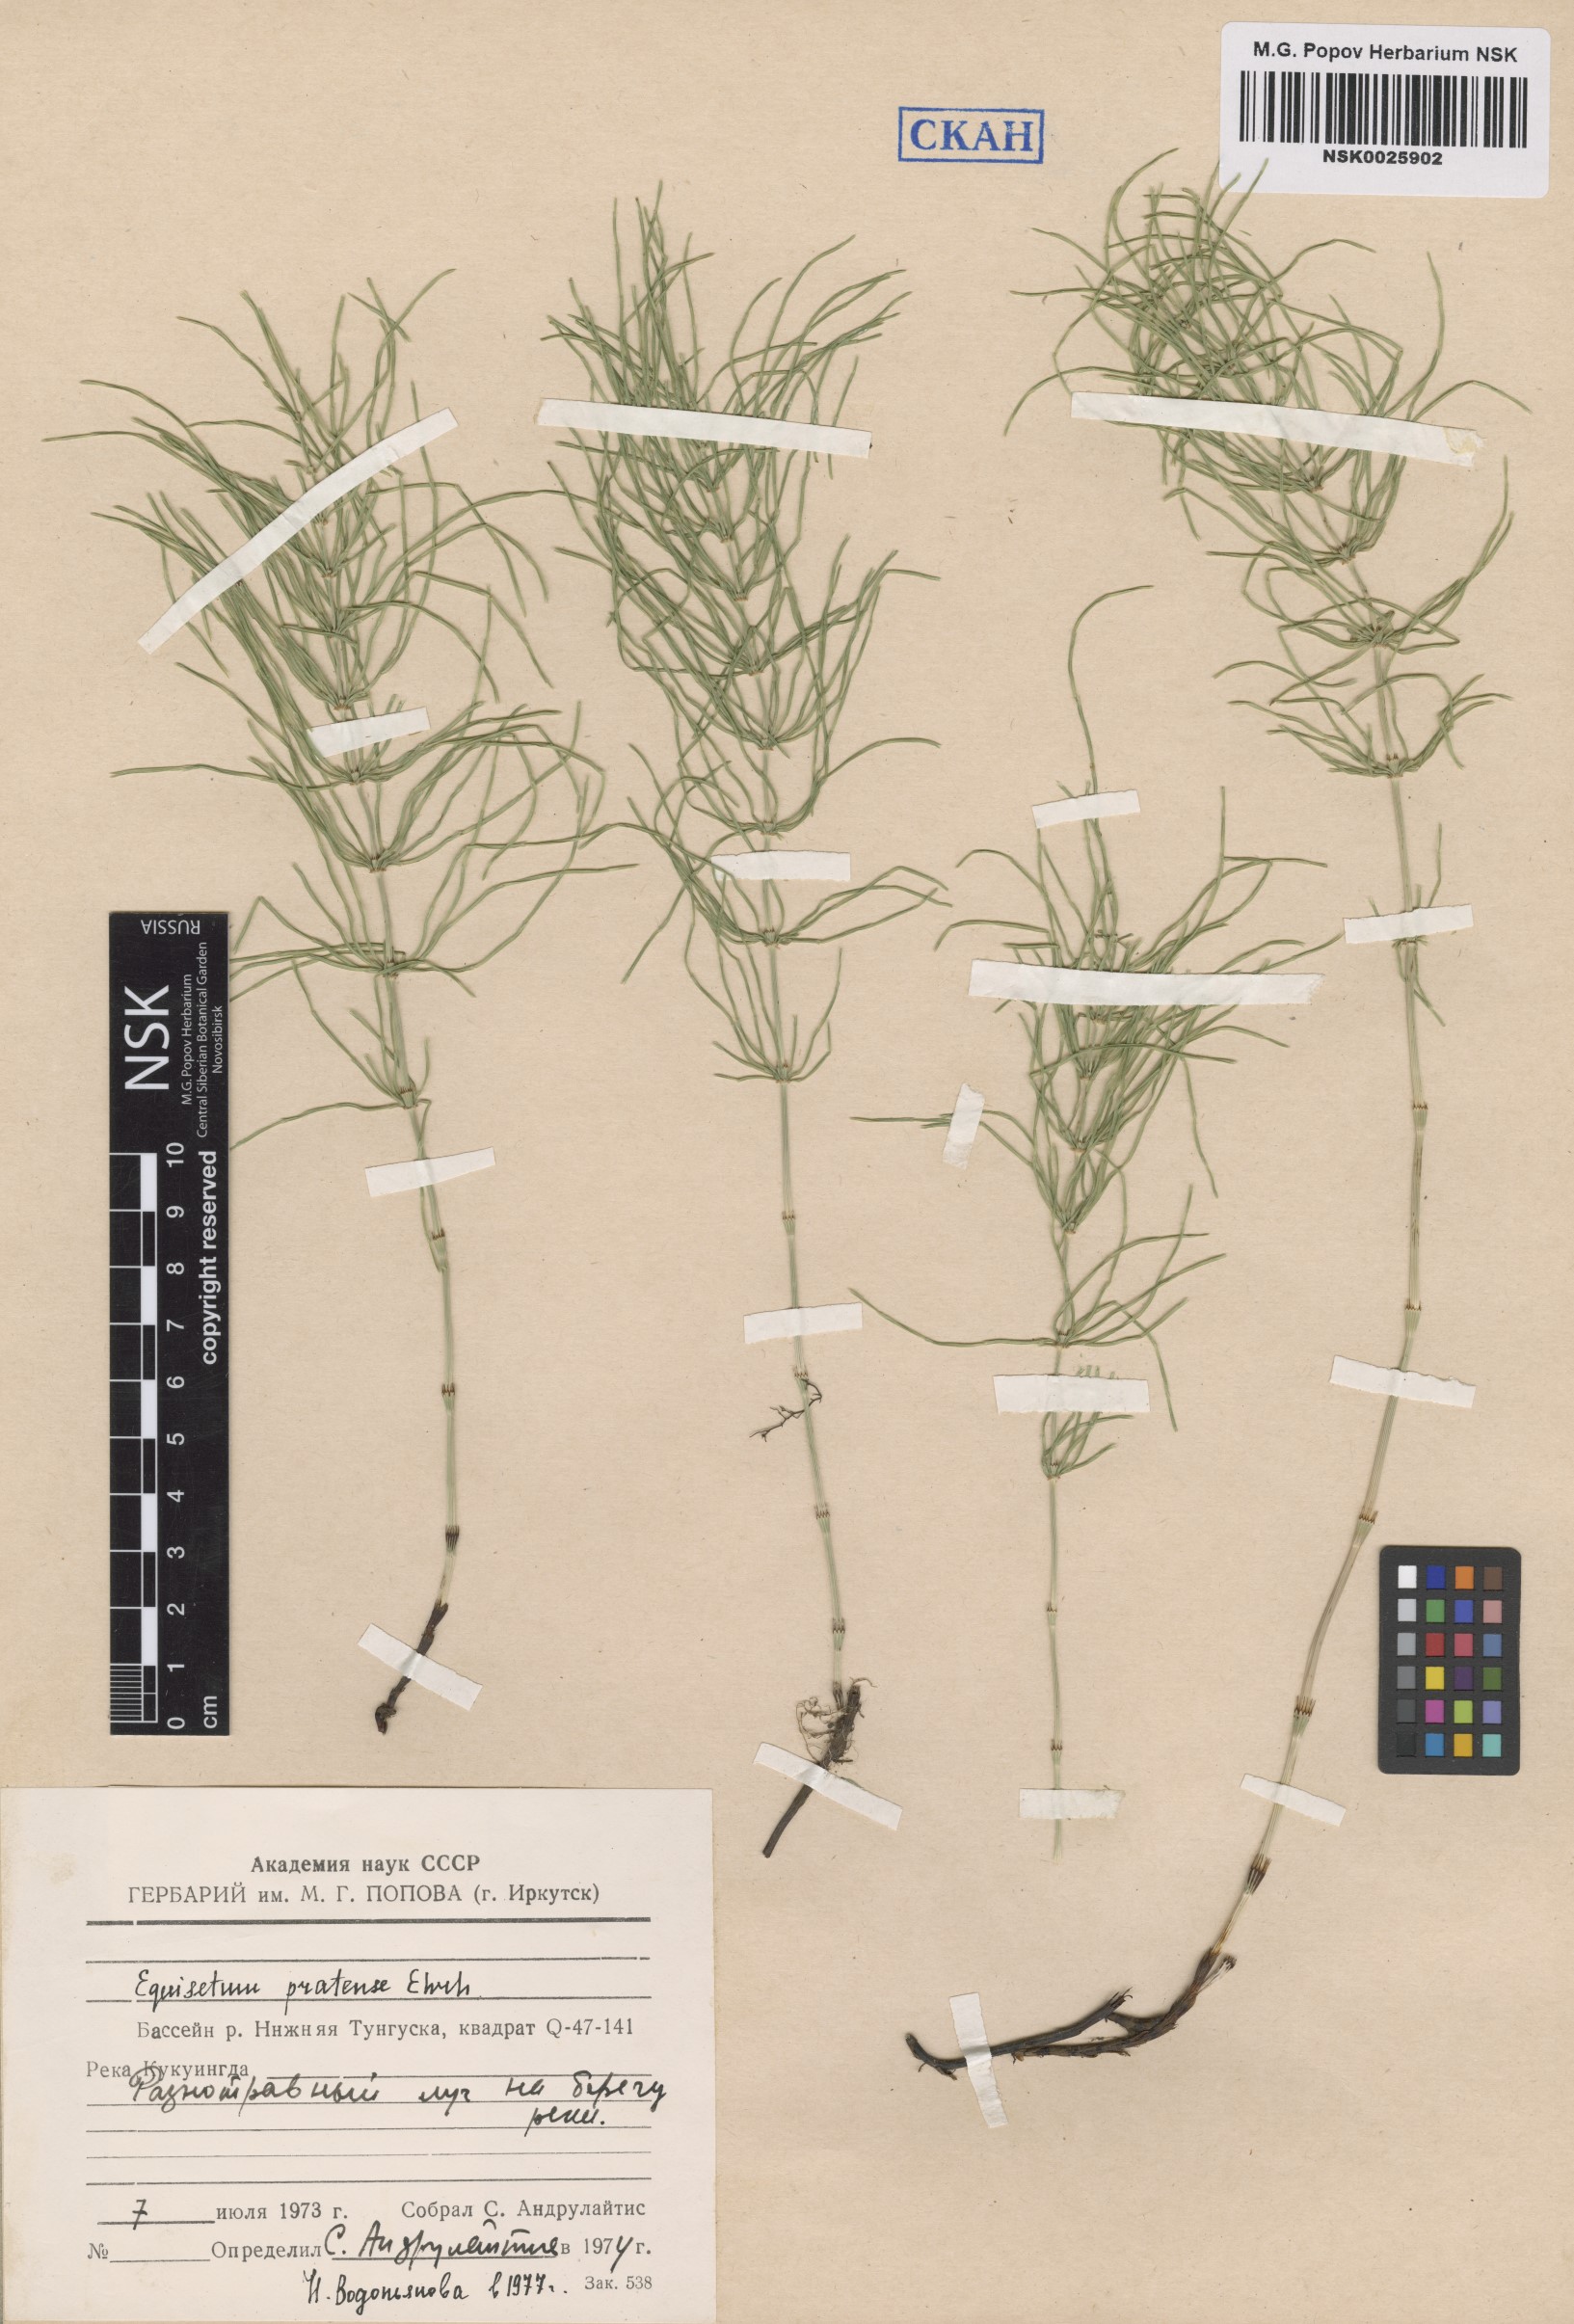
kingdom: Plantae
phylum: Tracheophyta
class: Polypodiopsida
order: Equisetales
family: Equisetaceae
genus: Equisetum
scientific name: Equisetum pratense
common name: Meadow horsetail
